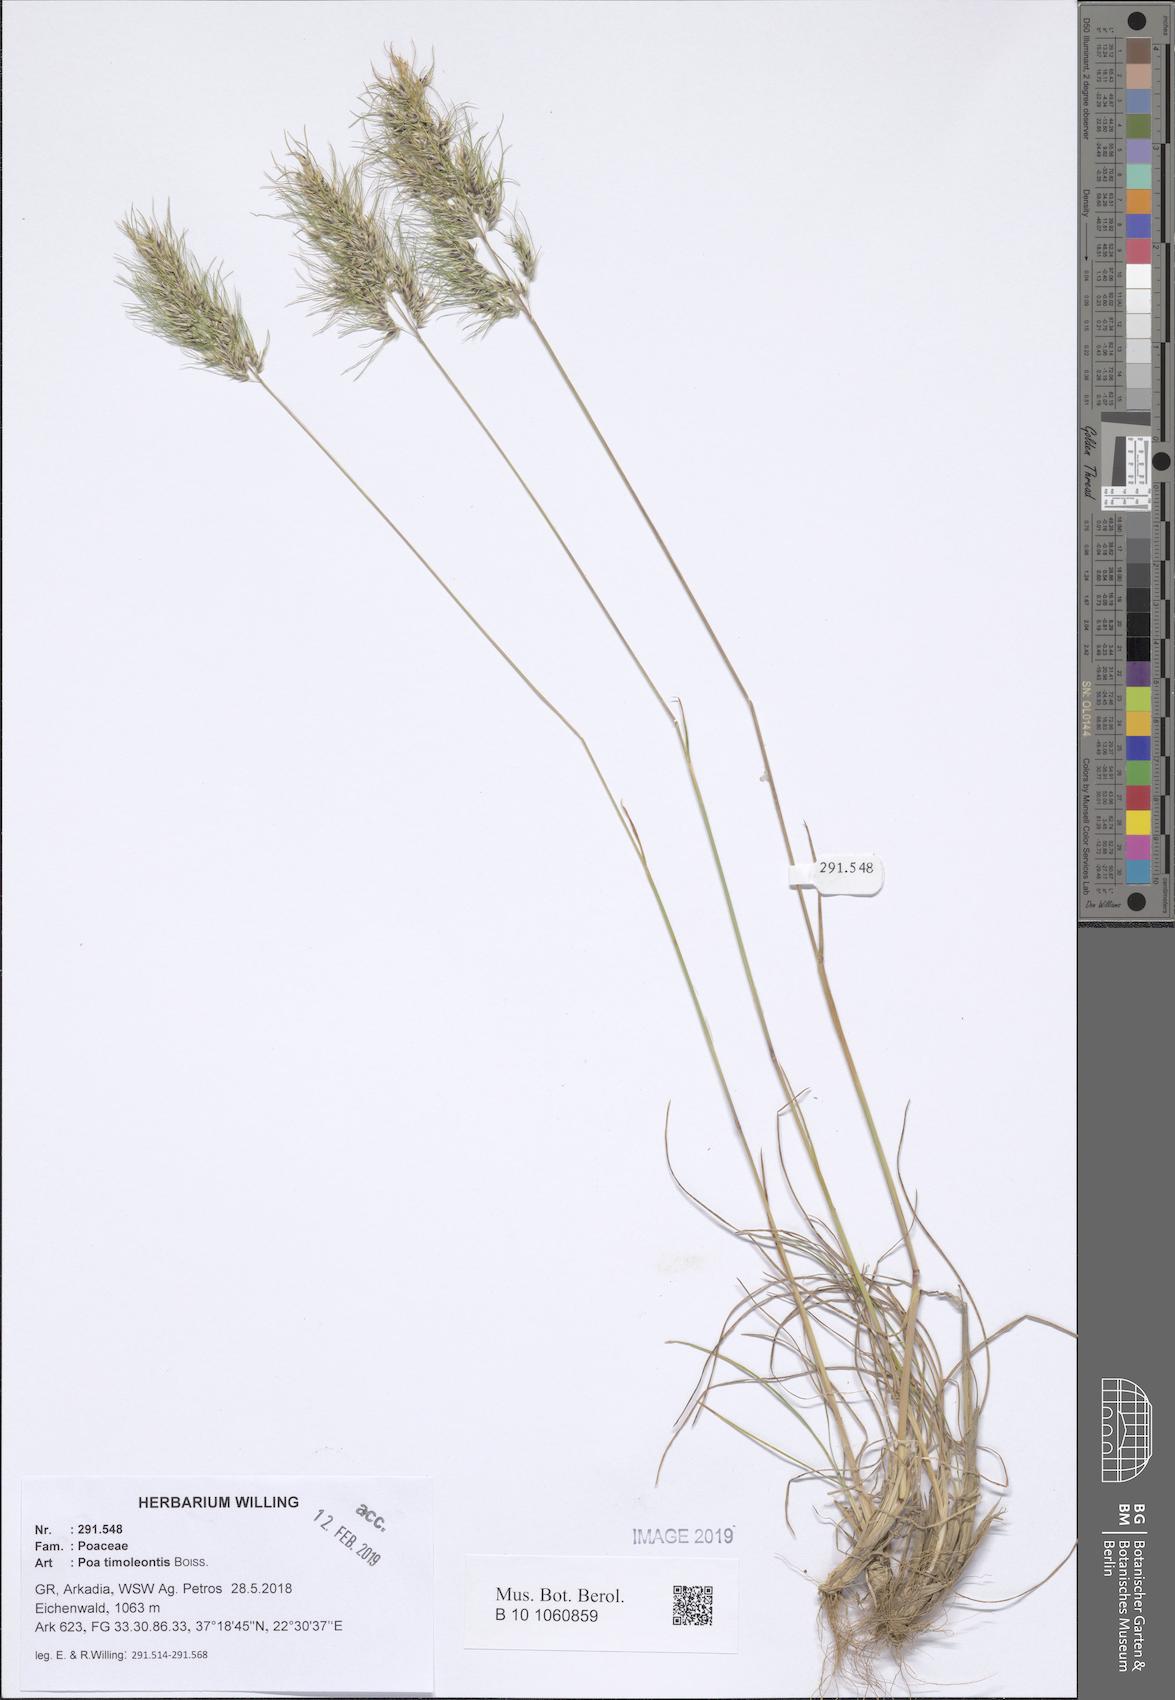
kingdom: Plantae
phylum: Tracheophyta
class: Liliopsida
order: Poales
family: Poaceae
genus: Poa
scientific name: Poa timoleontis
